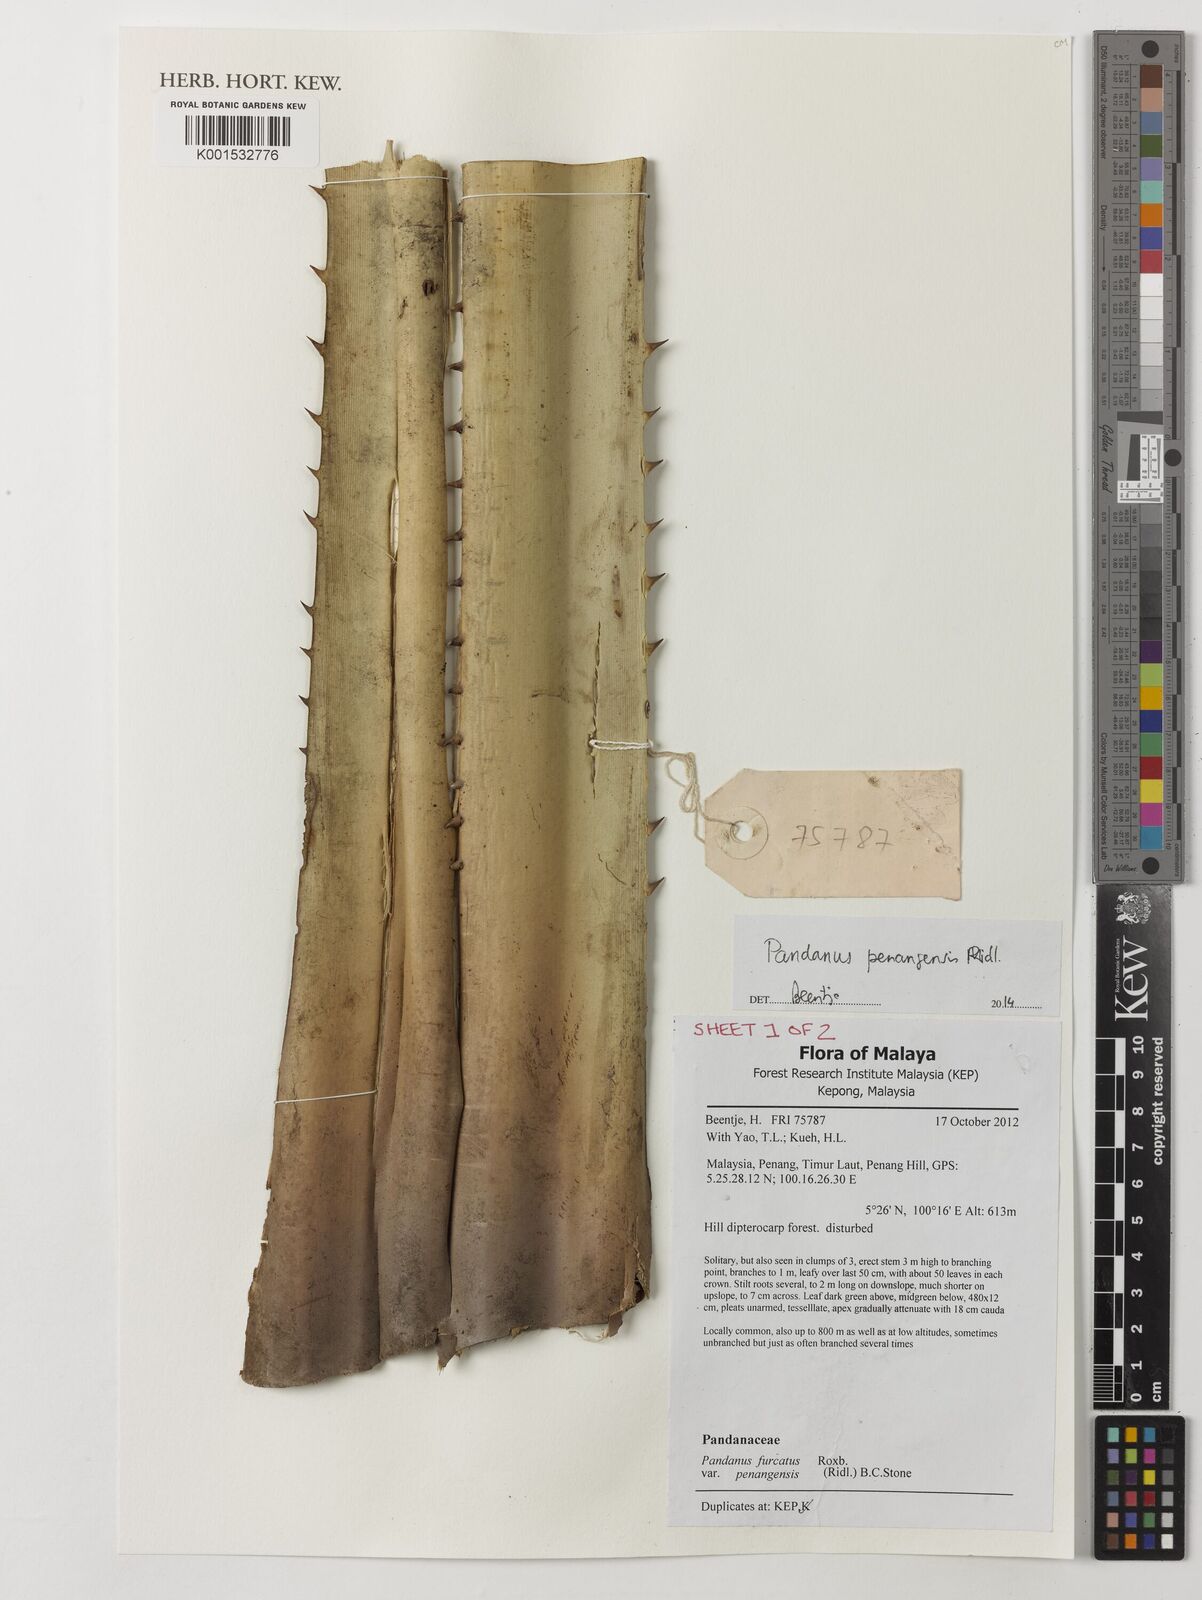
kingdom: Plantae
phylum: Tracheophyta
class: Liliopsida
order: Pandanales
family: Pandanaceae
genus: Pandanus
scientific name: Pandanus penangensis
